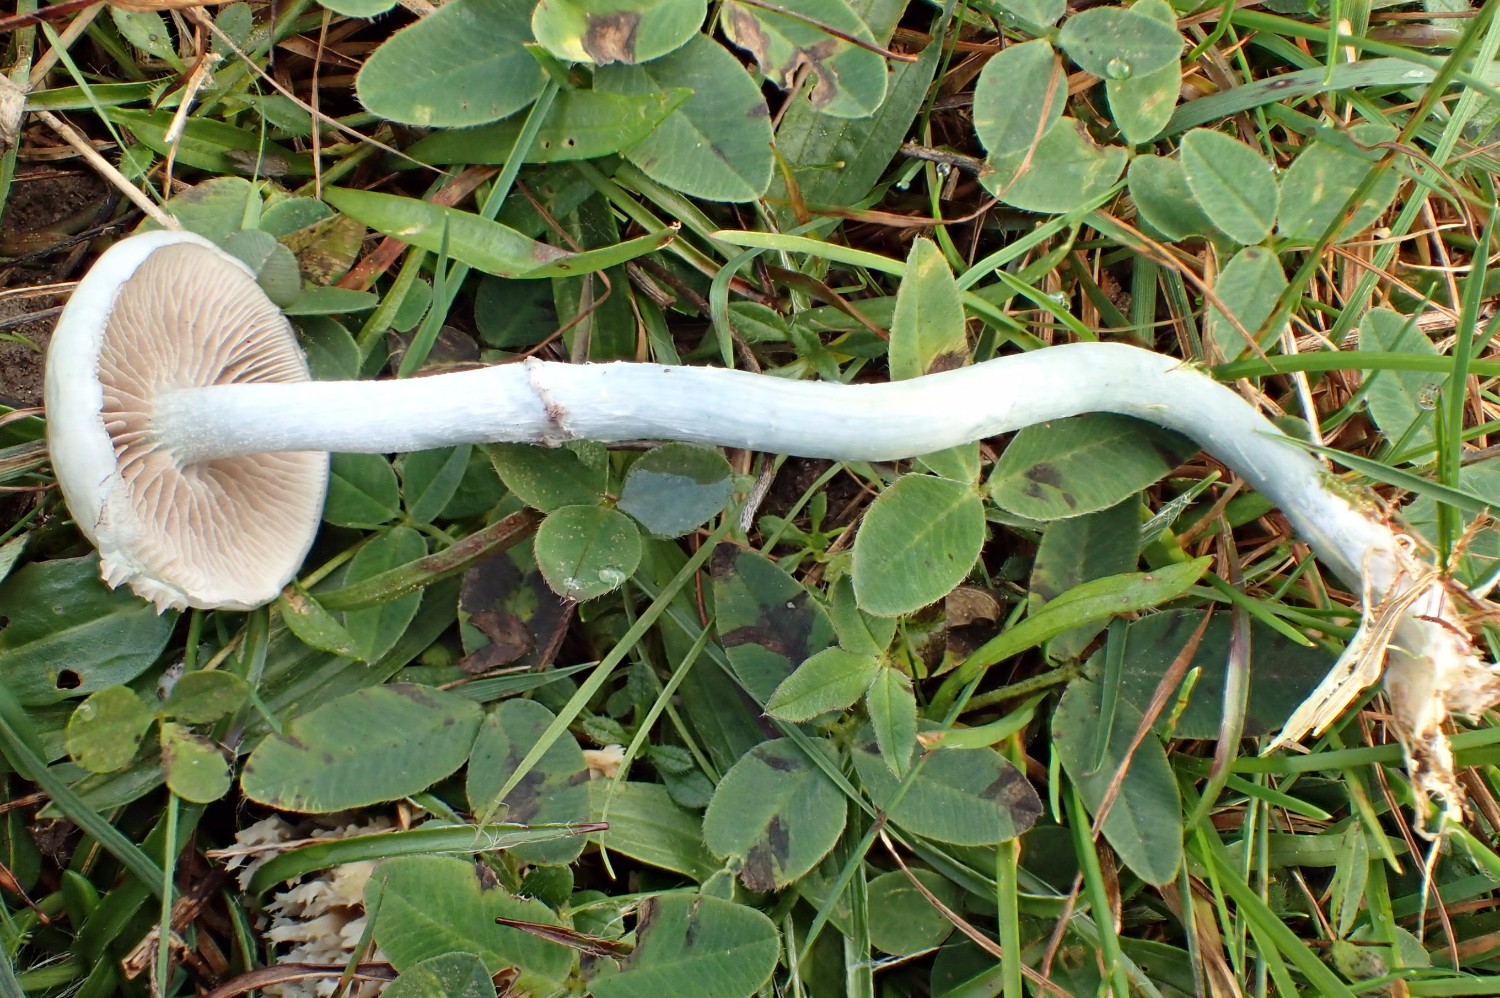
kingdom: Fungi
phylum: Basidiomycota
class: Agaricomycetes
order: Agaricales
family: Strophariaceae
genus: Stropharia
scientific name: Stropharia cyanea
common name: blågrøn bredblad
